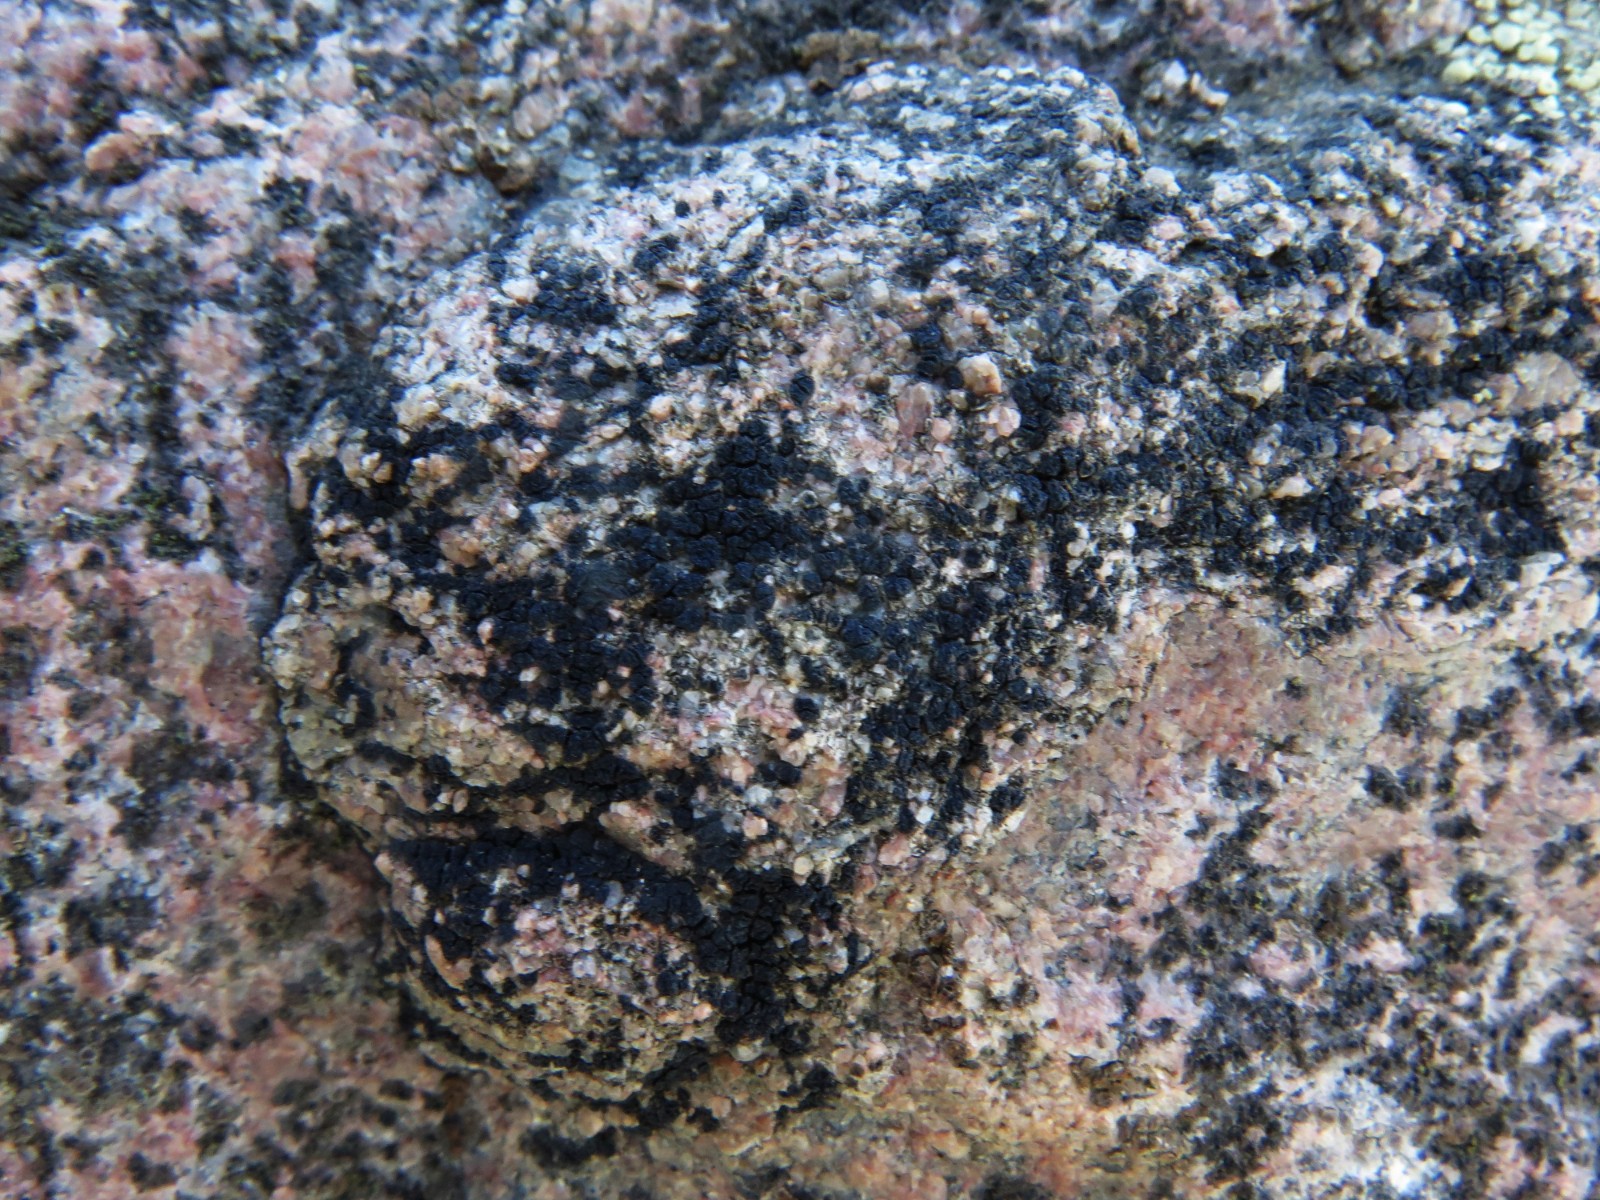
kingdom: Fungi
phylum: Ascomycota
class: Lecanoromycetes
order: Acarosporales
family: Acarosporaceae
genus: Acarospora
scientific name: Acarospora privigna
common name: sort foldekantlav
